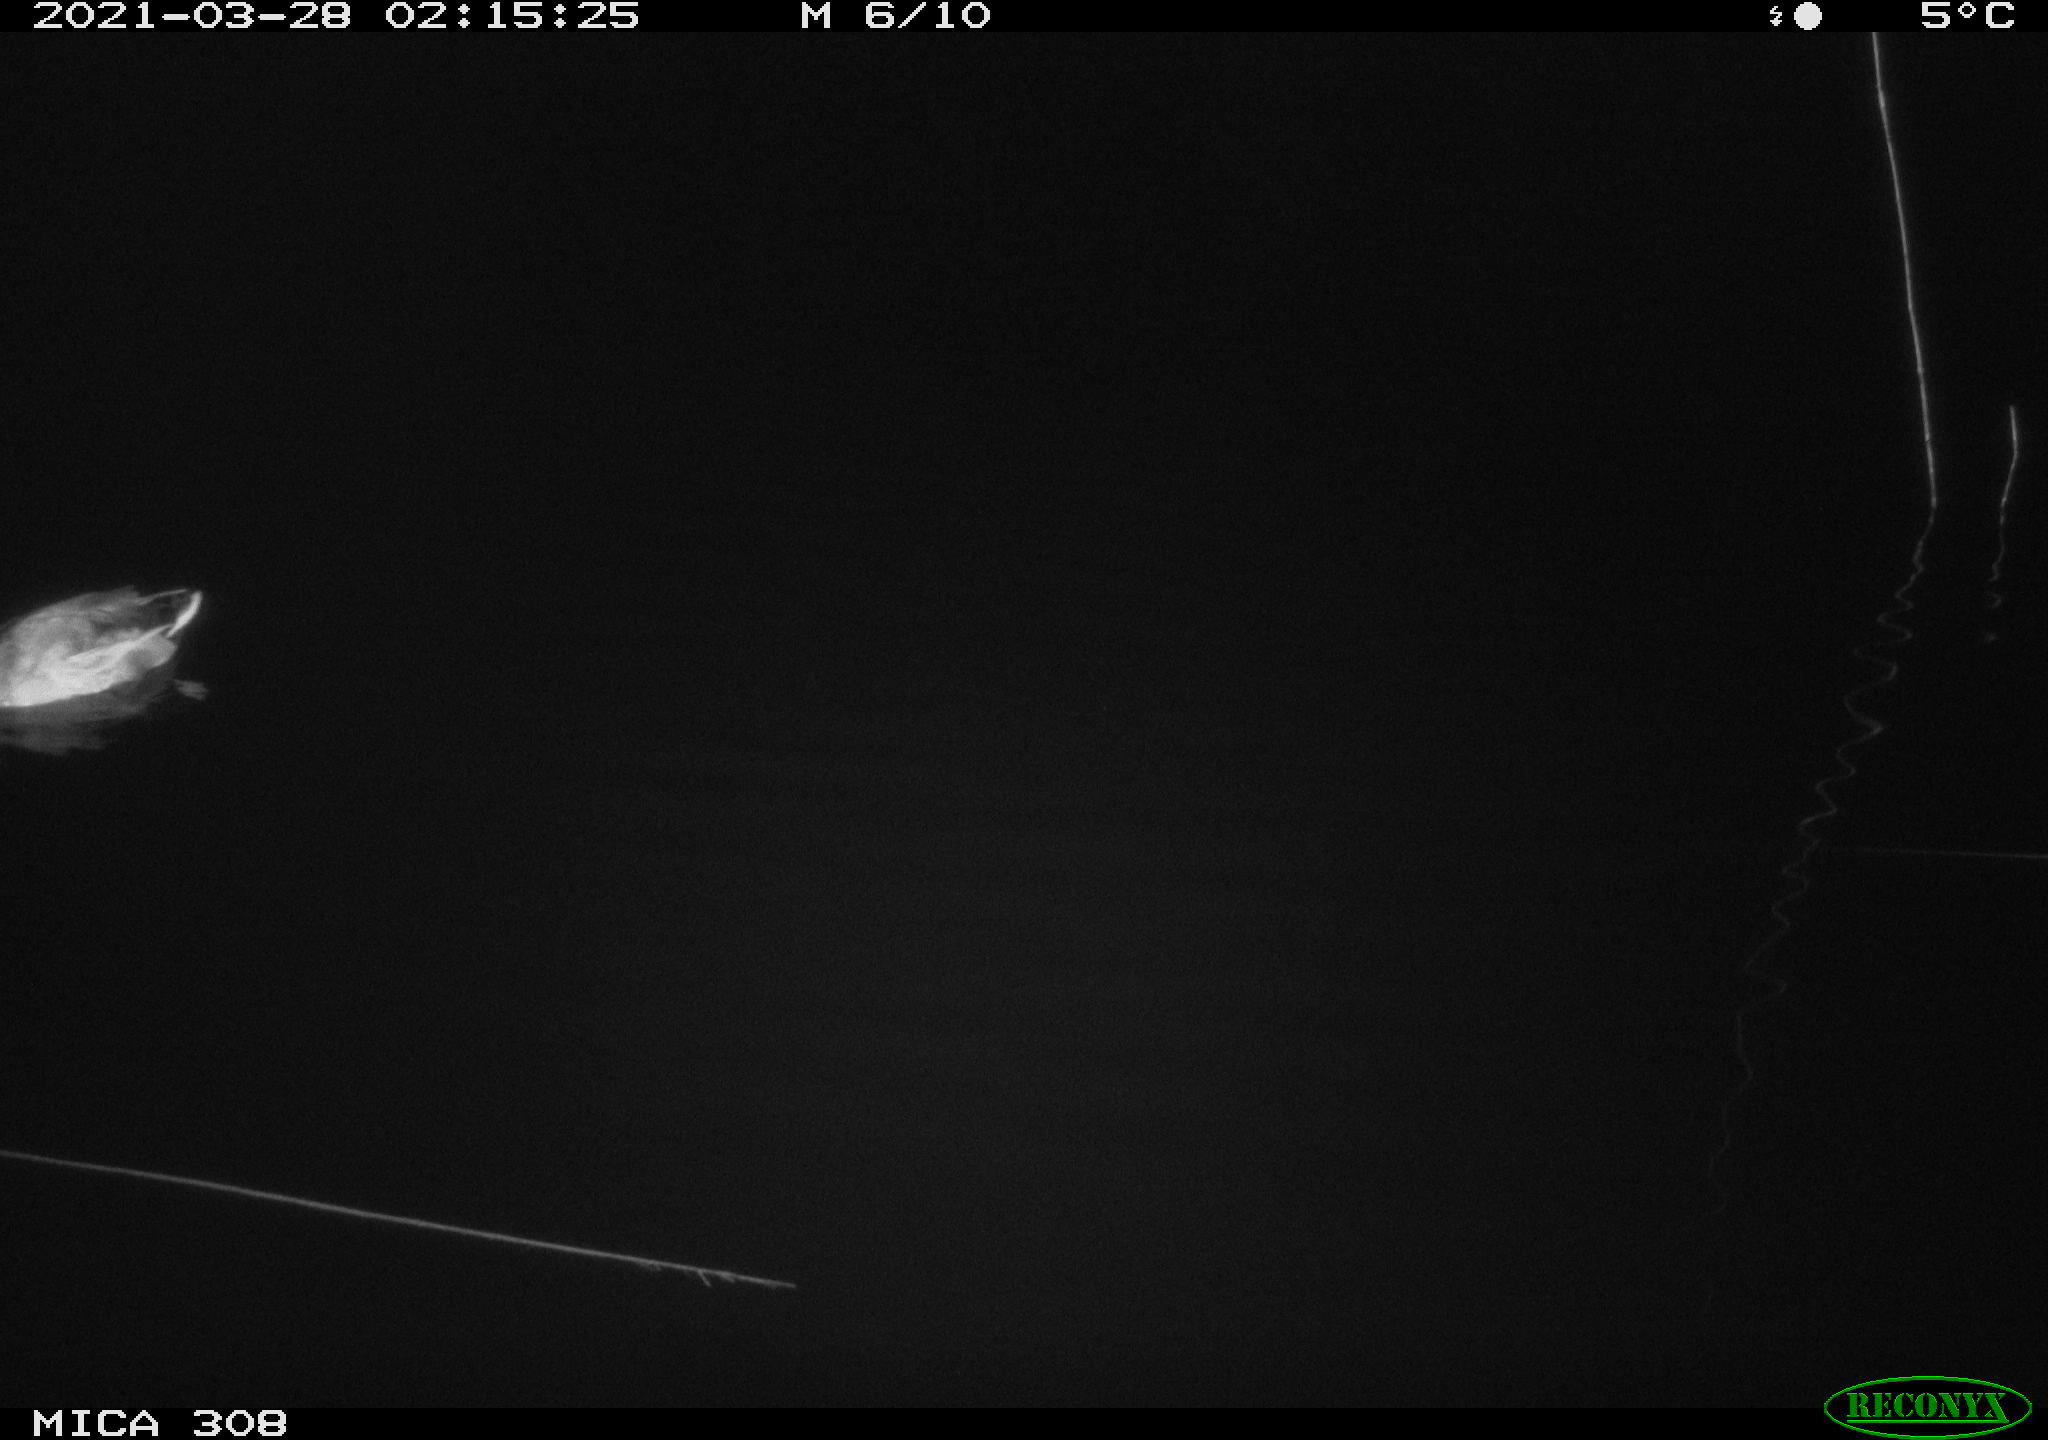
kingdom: Animalia
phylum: Chordata
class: Aves
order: Anseriformes
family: Anatidae
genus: Anas
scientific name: Anas platyrhynchos
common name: Mallard
